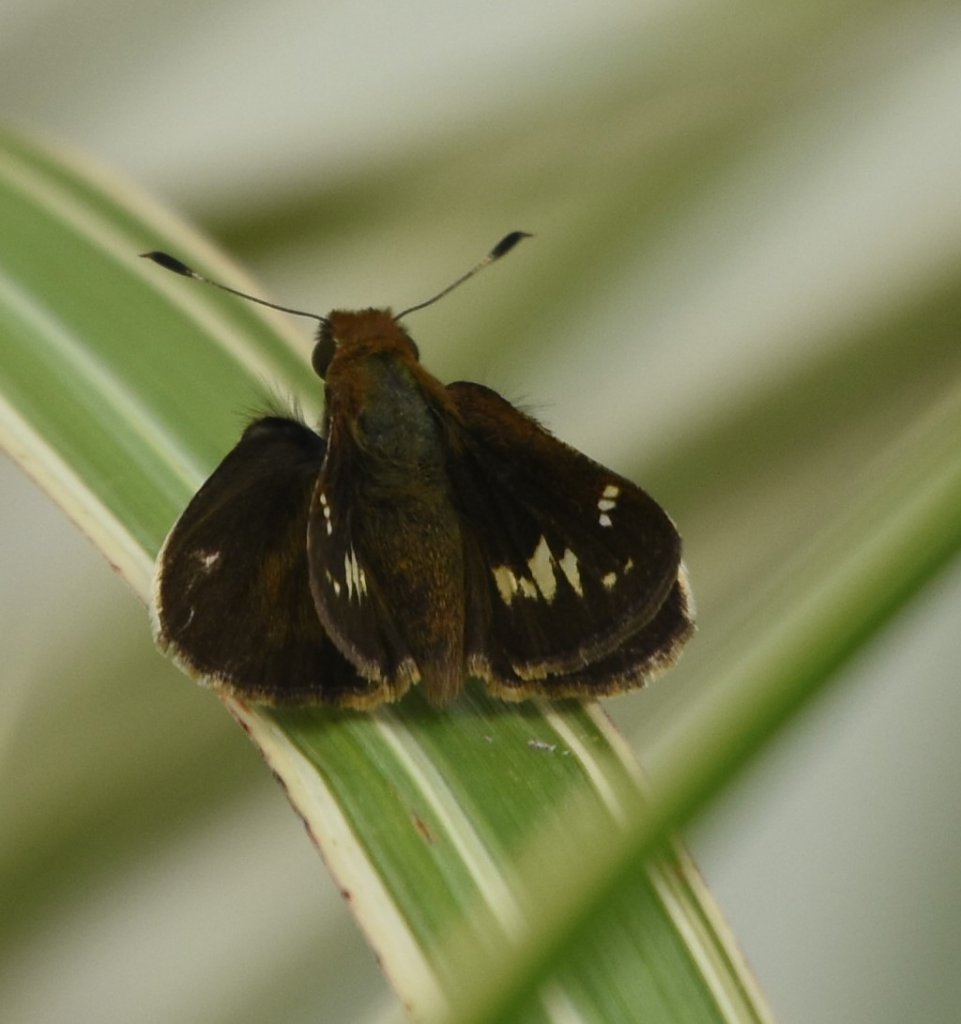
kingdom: Animalia
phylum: Arthropoda
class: Insecta
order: Lepidoptera
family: Hesperiidae
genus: Vernia
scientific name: Vernia verna
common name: Little Glassywing
